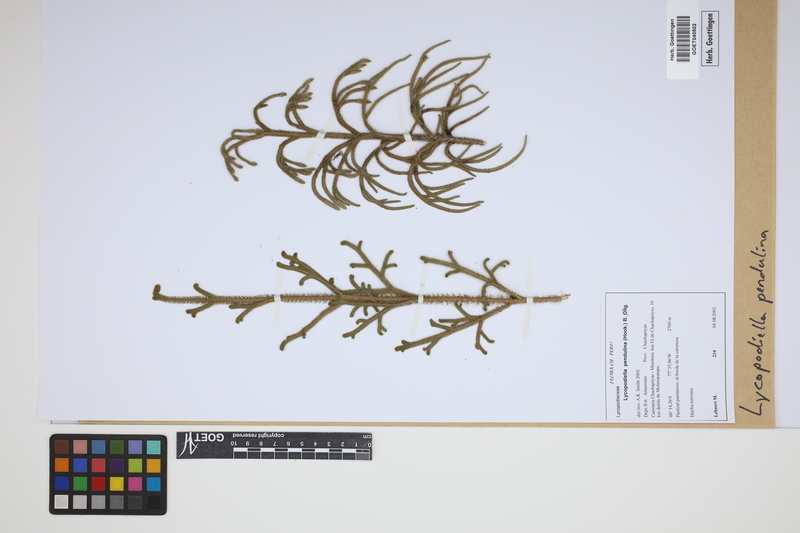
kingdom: Plantae
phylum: Tracheophyta
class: Lycopodiopsida
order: Lycopodiales
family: Lycopodiaceae
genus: Palhinhaea
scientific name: Palhinhaea pendulina
